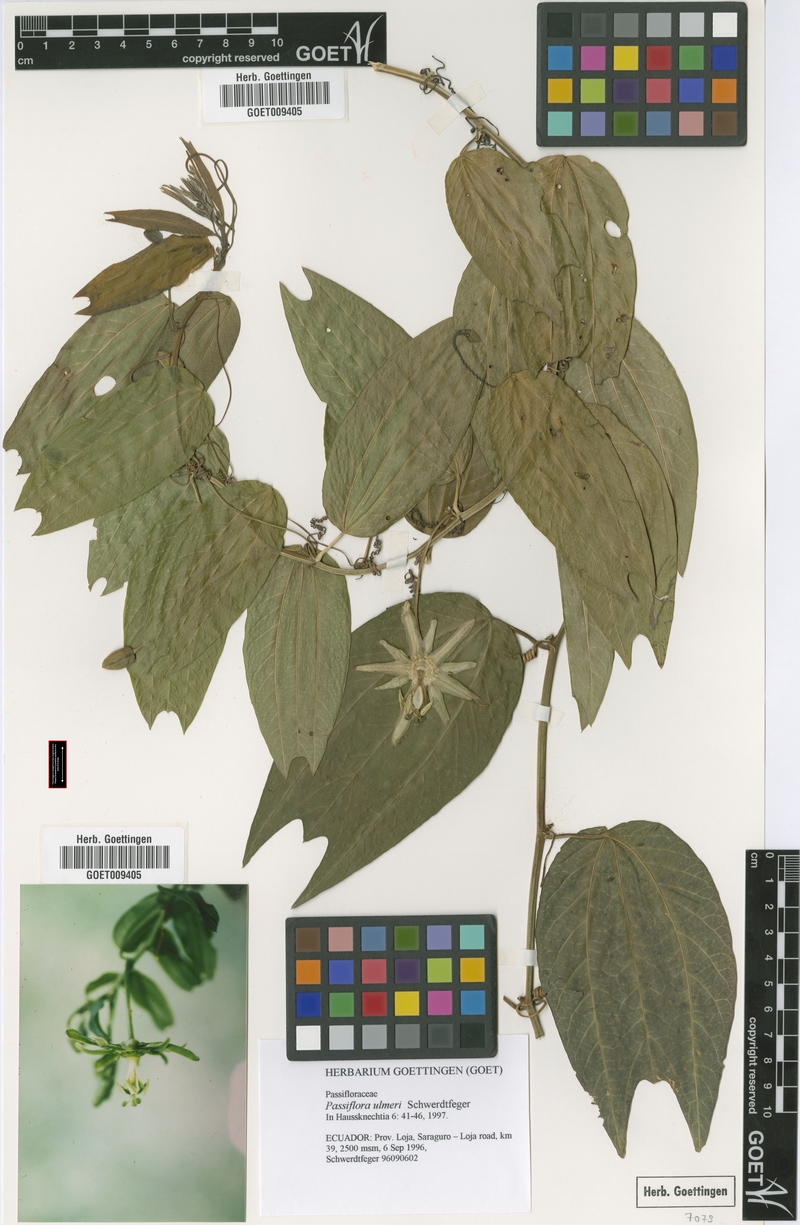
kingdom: Plantae
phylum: Tracheophyta
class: Magnoliopsida
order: Malpighiales
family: Passifloraceae
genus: Passiflora
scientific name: Passiflora viridescens
